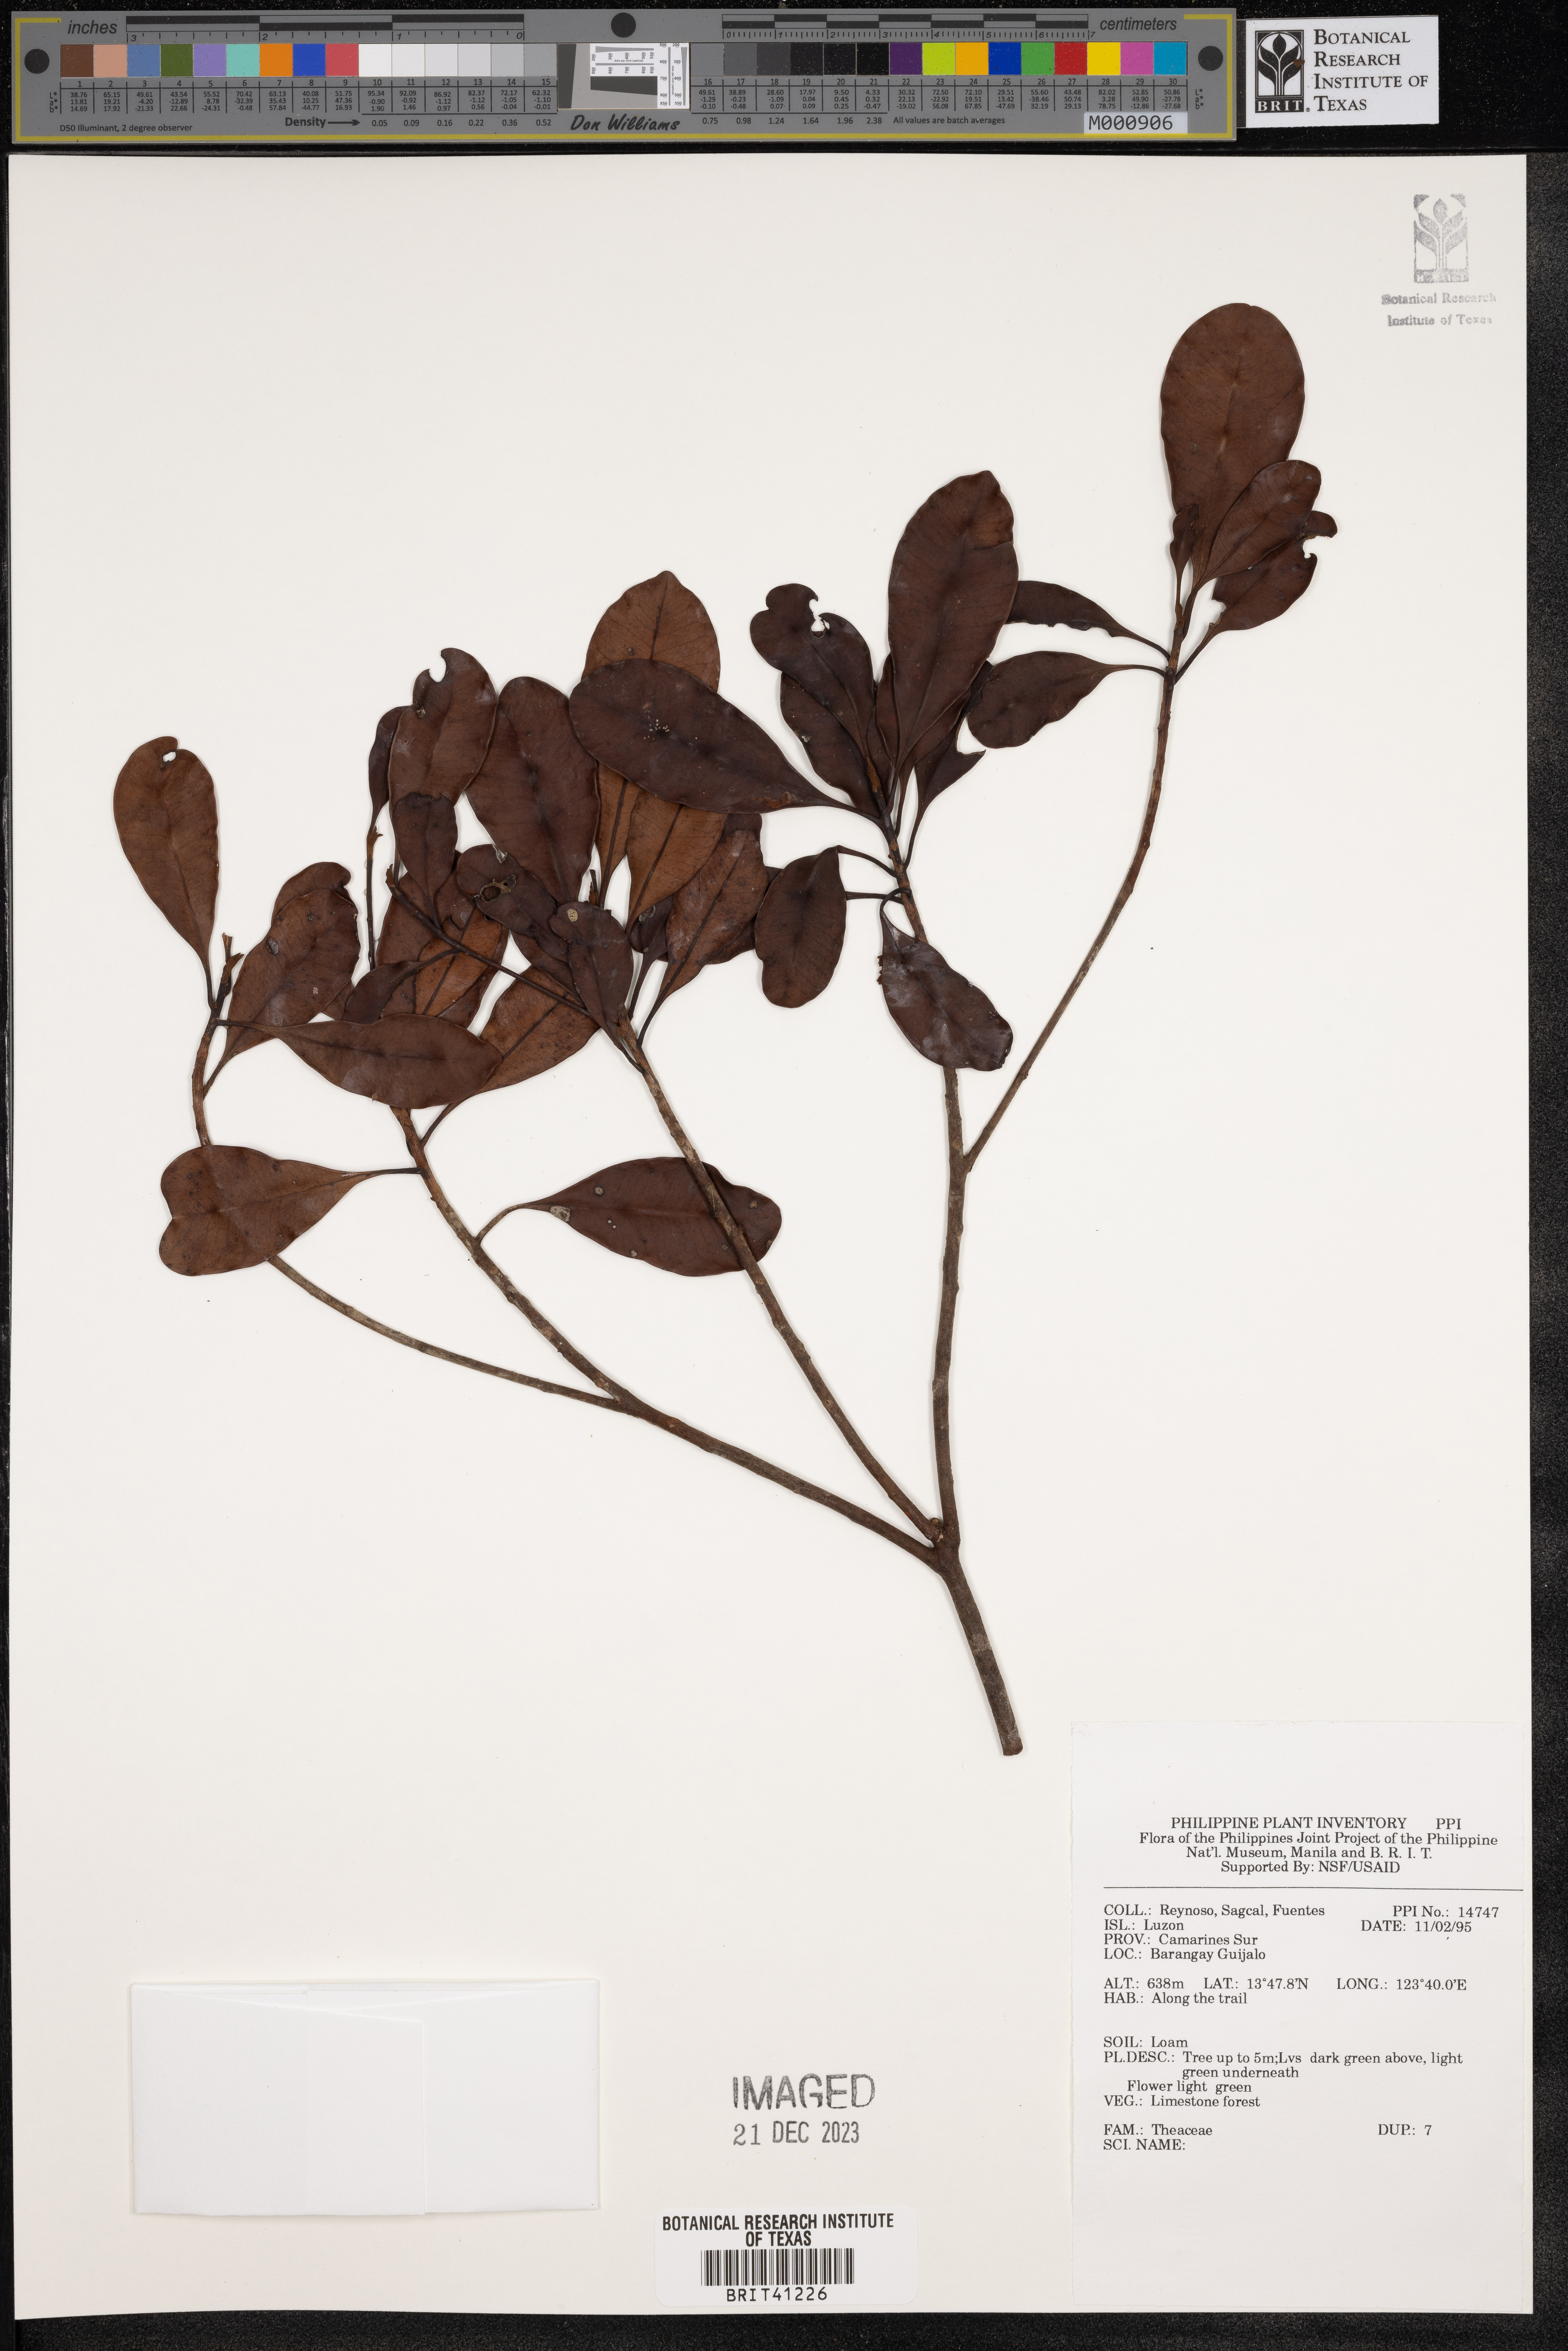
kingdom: Plantae
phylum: Tracheophyta
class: Magnoliopsida
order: Ericales
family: Theaceae
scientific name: Theaceae
